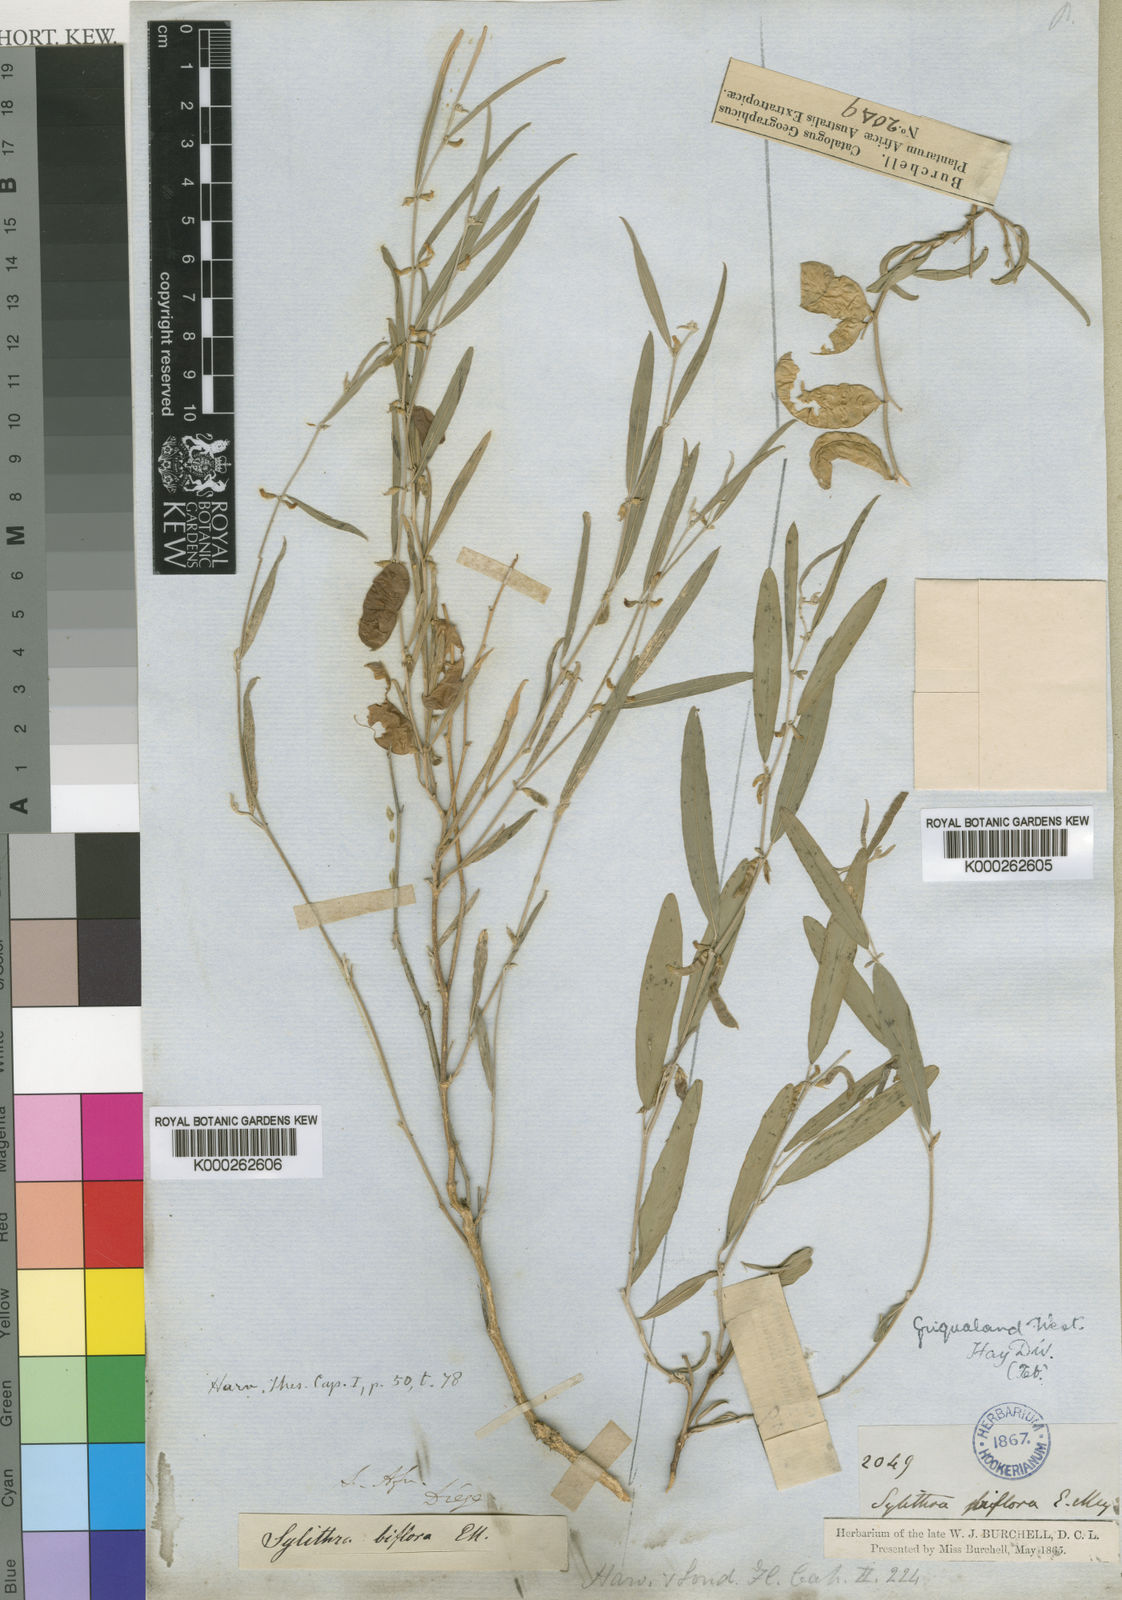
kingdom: Plantae
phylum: Tracheophyta
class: Magnoliopsida
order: Fabales
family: Fabaceae
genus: Ptycholobium
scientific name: Ptycholobium biflorum
